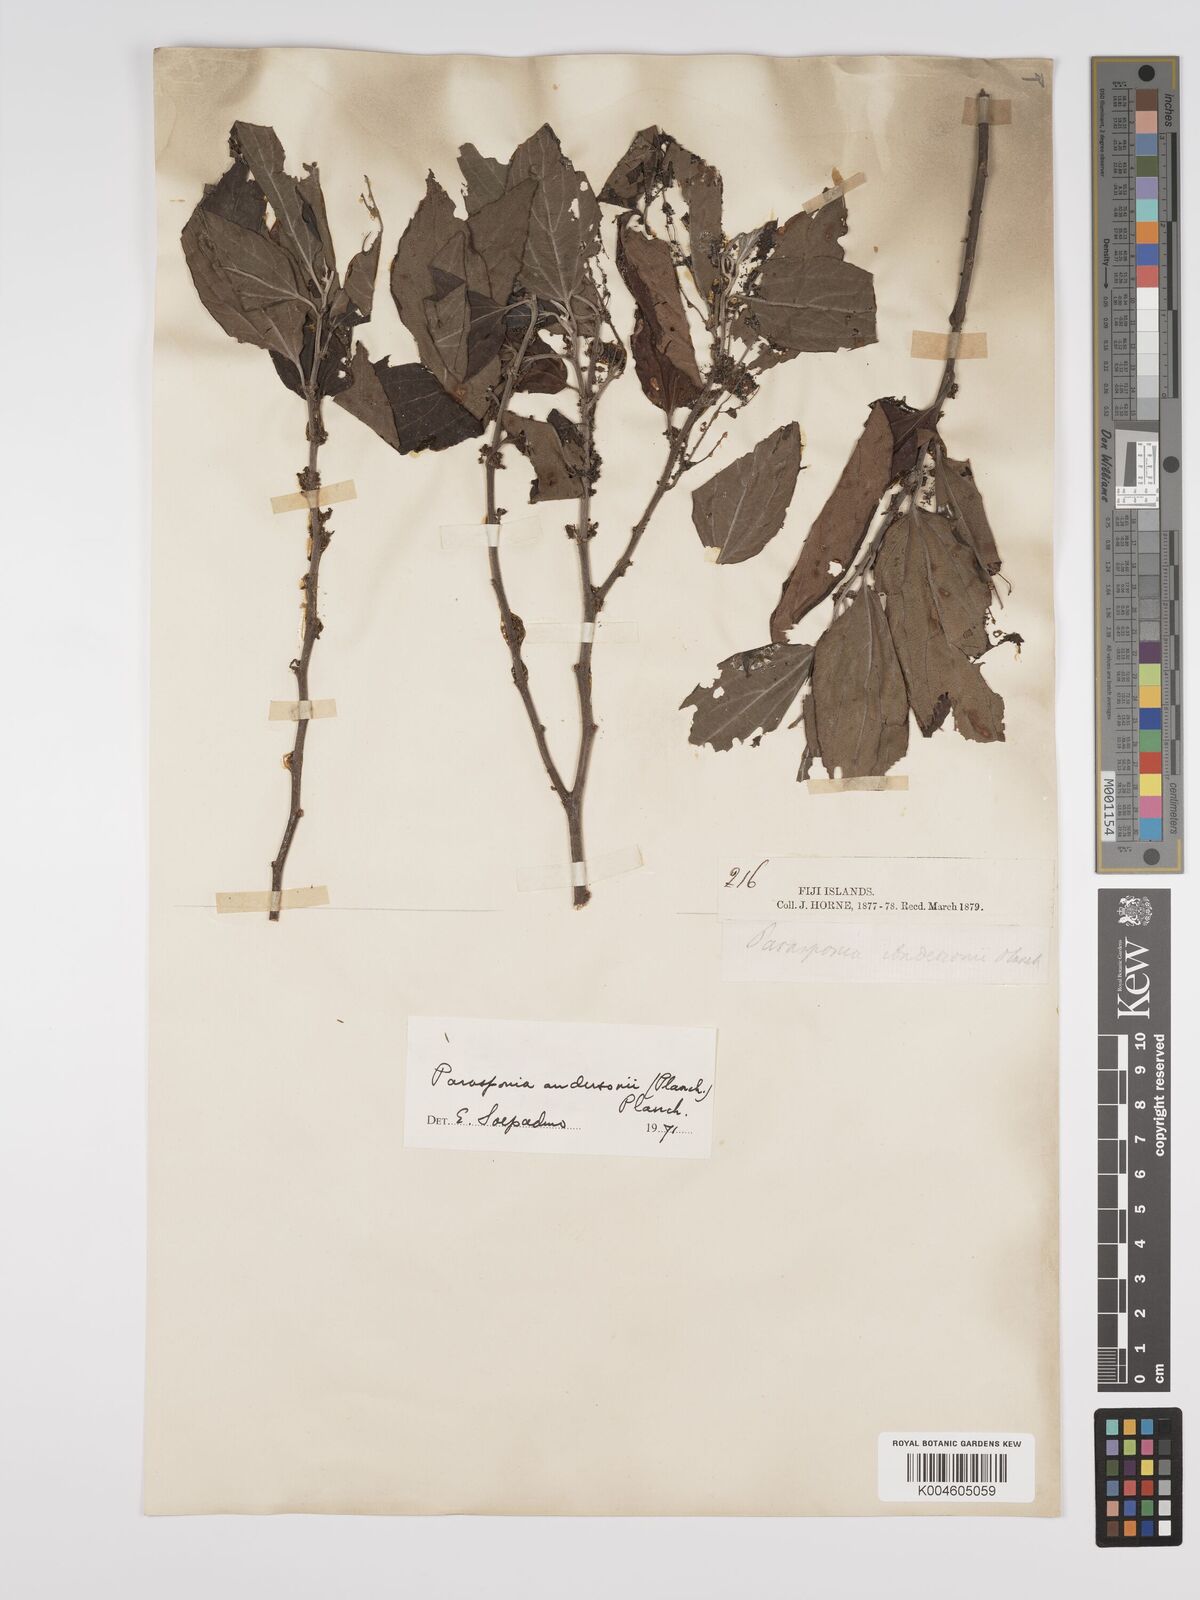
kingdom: Plantae
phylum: Tracheophyta
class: Magnoliopsida
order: Rosales
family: Cannabaceae
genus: Trema
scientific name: Trema andersonii
